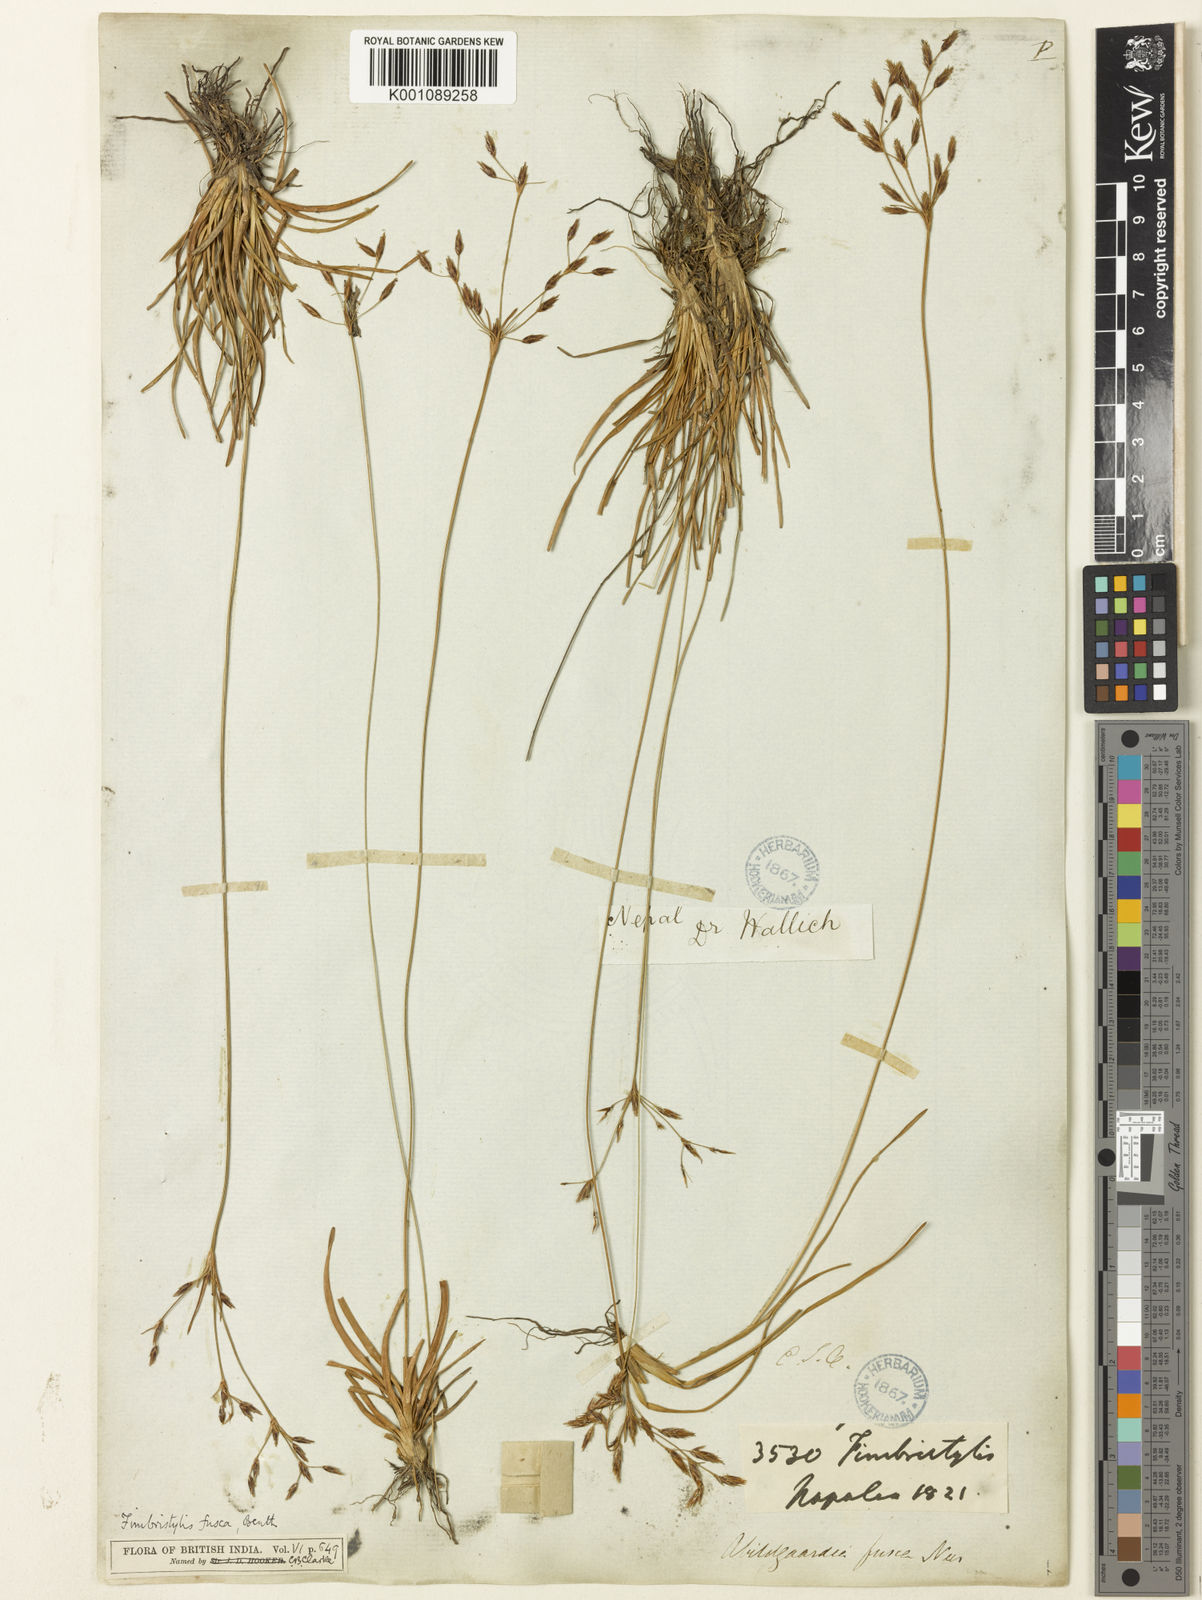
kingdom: Plantae
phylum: Tracheophyta
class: Liliopsida
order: Poales
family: Cyperaceae
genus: Fimbristylis
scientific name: Fimbristylis fusca
